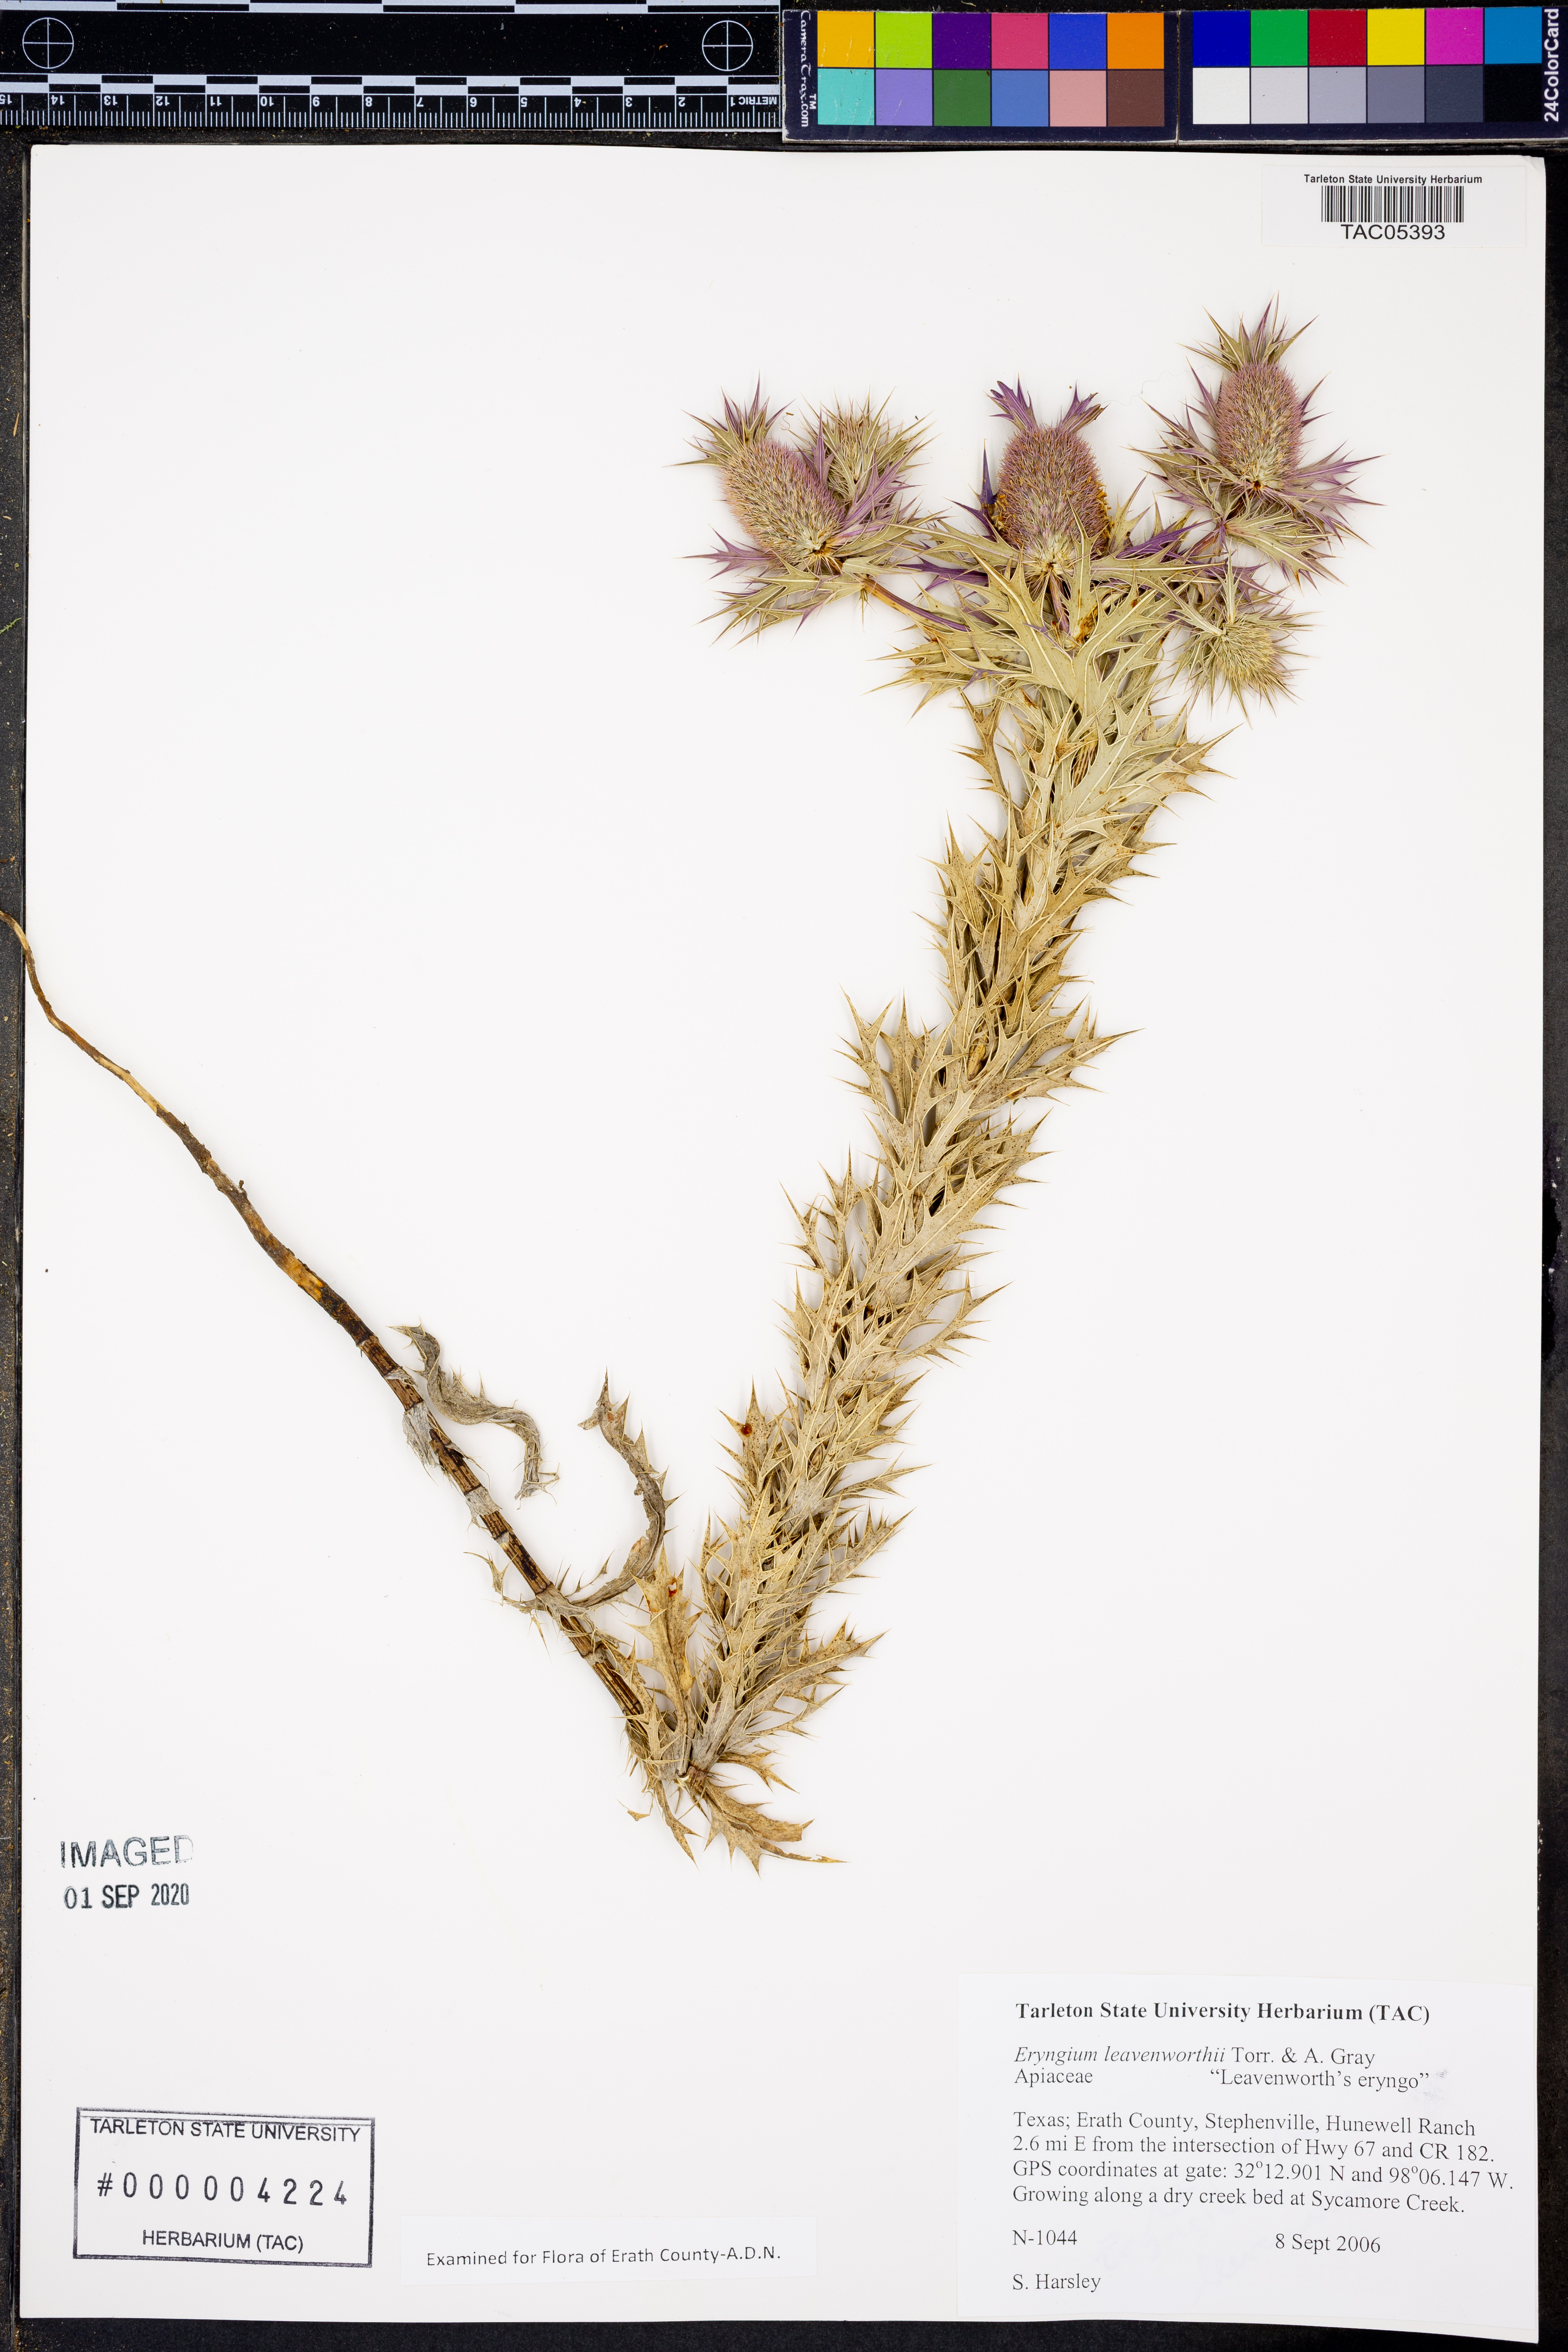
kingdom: Plantae
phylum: Tracheophyta
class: Magnoliopsida
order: Apiales
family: Apiaceae
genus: Eryngium
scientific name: Eryngium leavenworthii
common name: Leavenworth's eryngo
